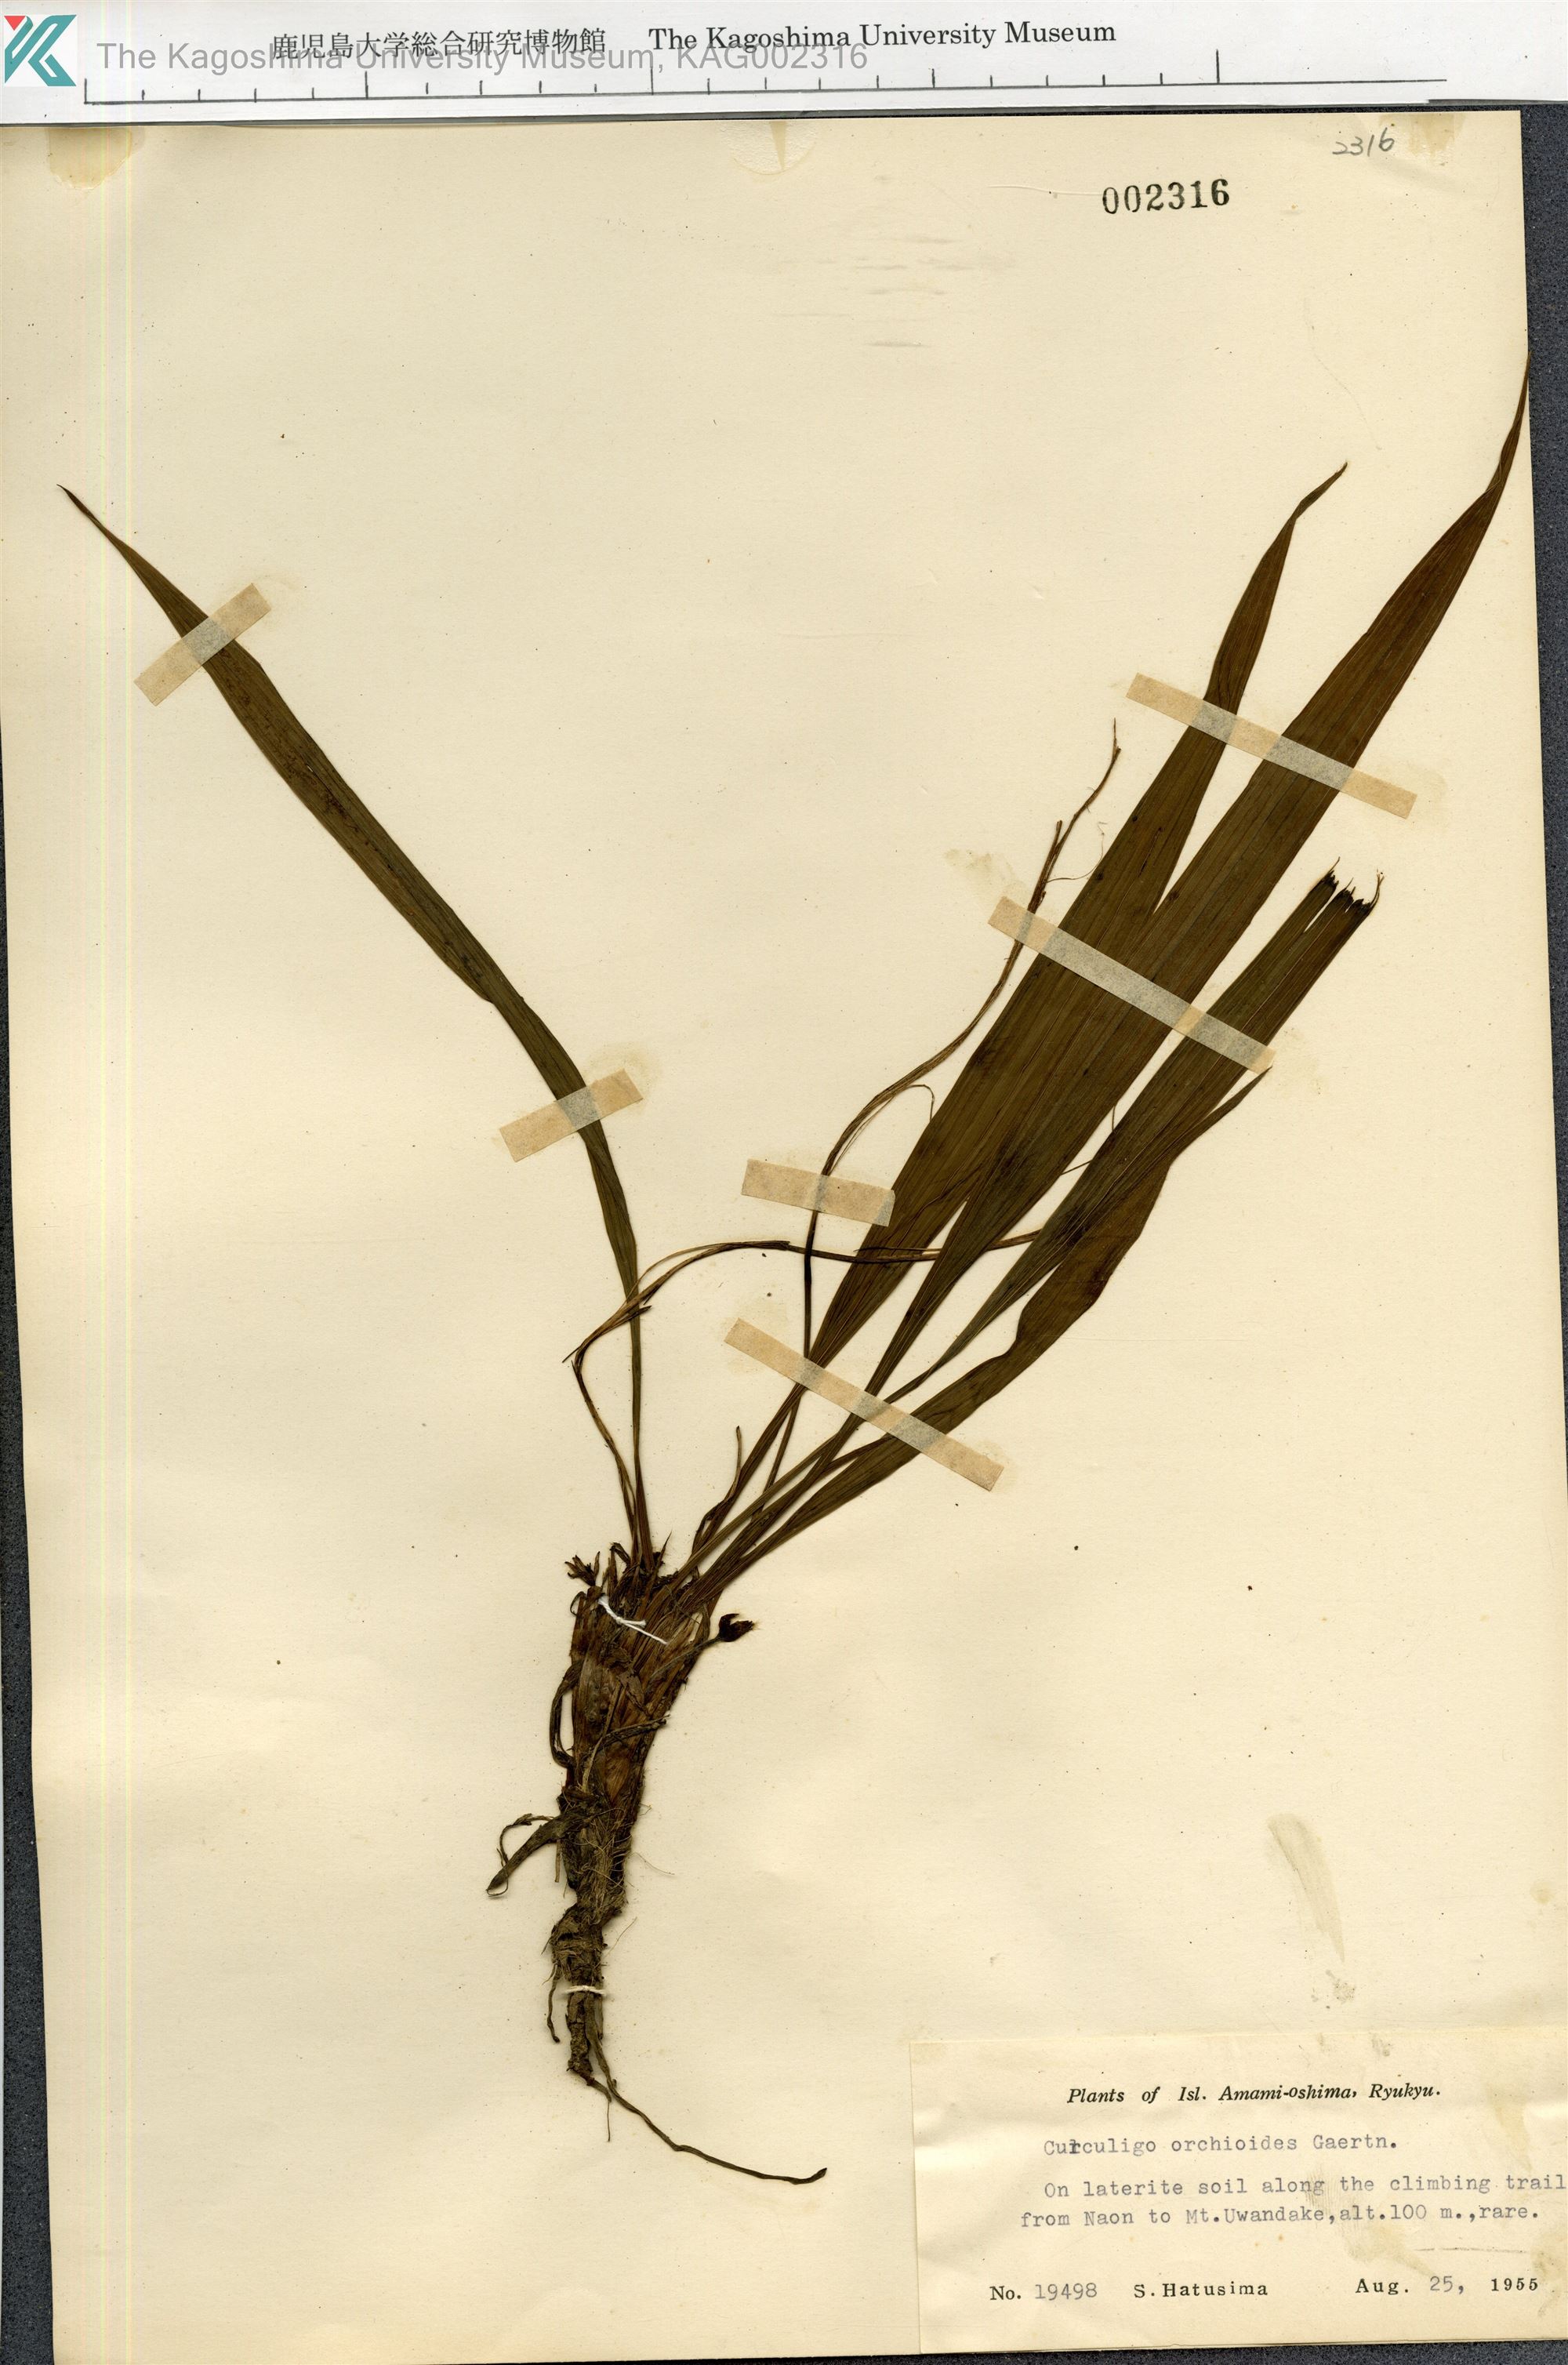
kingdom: Plantae
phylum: Tracheophyta
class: Liliopsida
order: Asparagales
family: Hypoxidaceae
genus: Curculigo
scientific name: Curculigo orchioides
